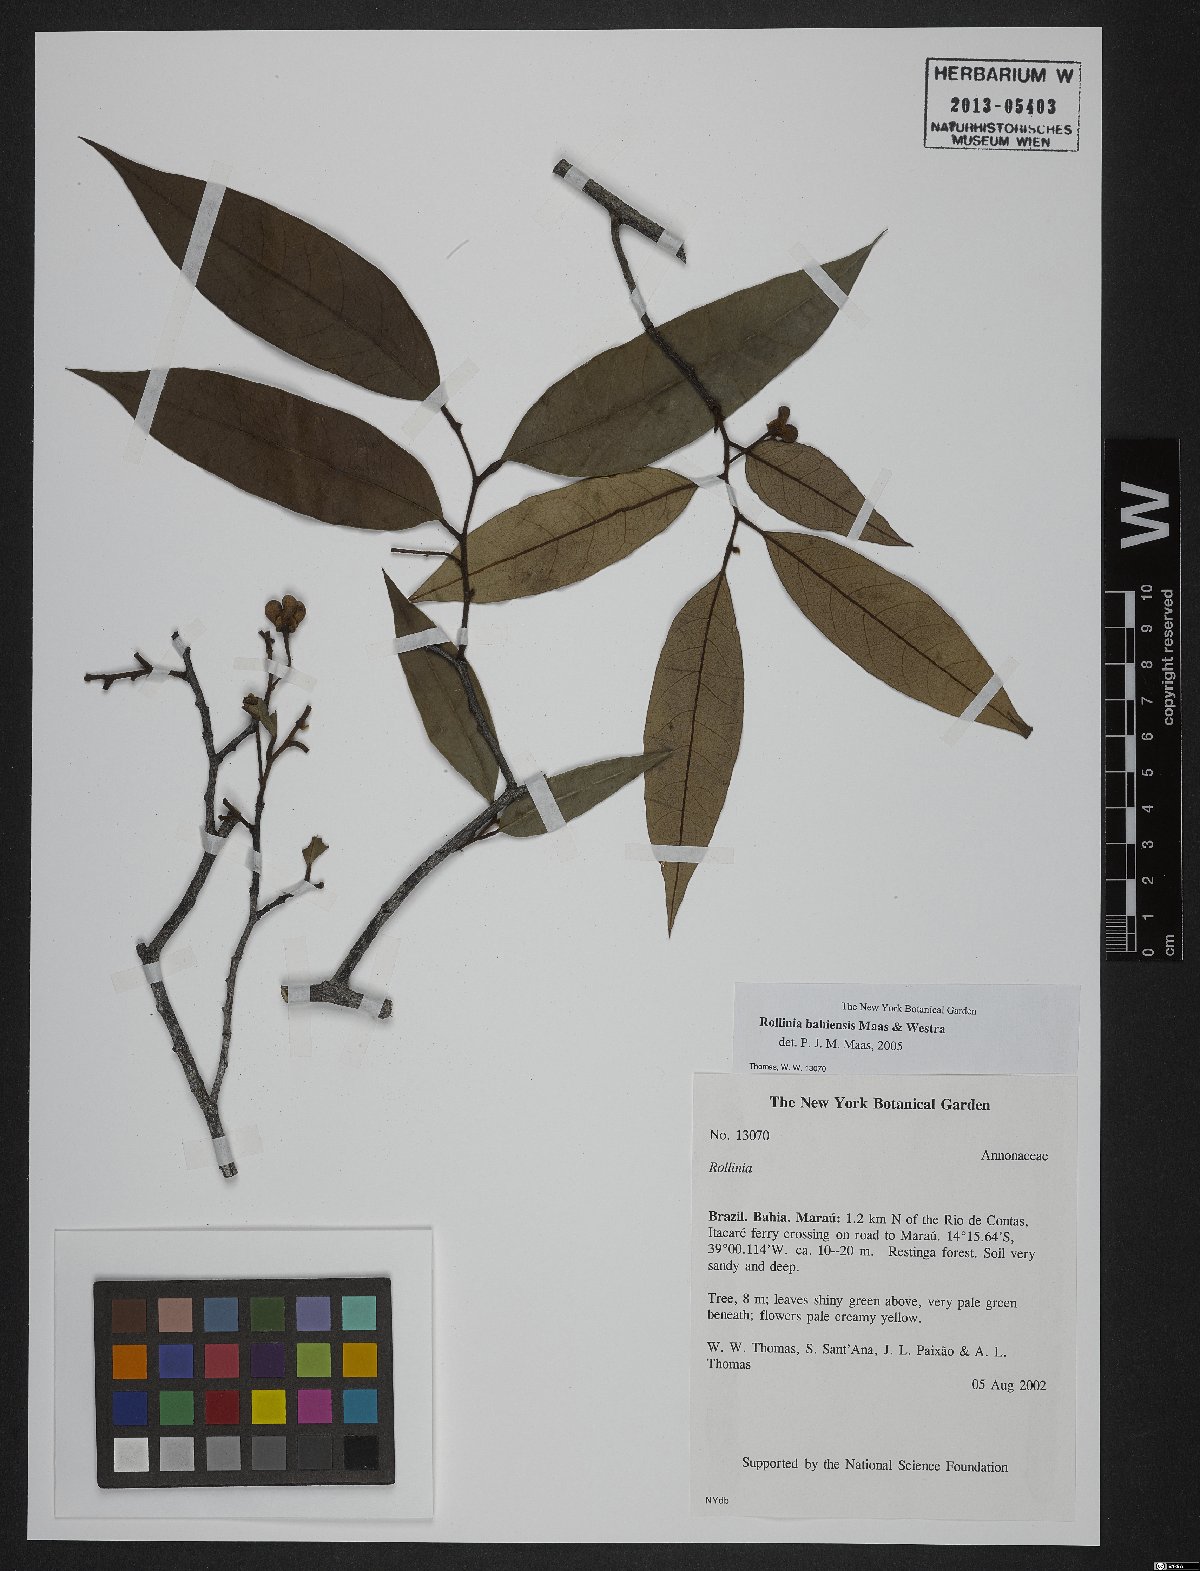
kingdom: Plantae
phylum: Tracheophyta
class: Magnoliopsida
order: Magnoliales
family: Annonaceae
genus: Annona
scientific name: Annona bahiensis
